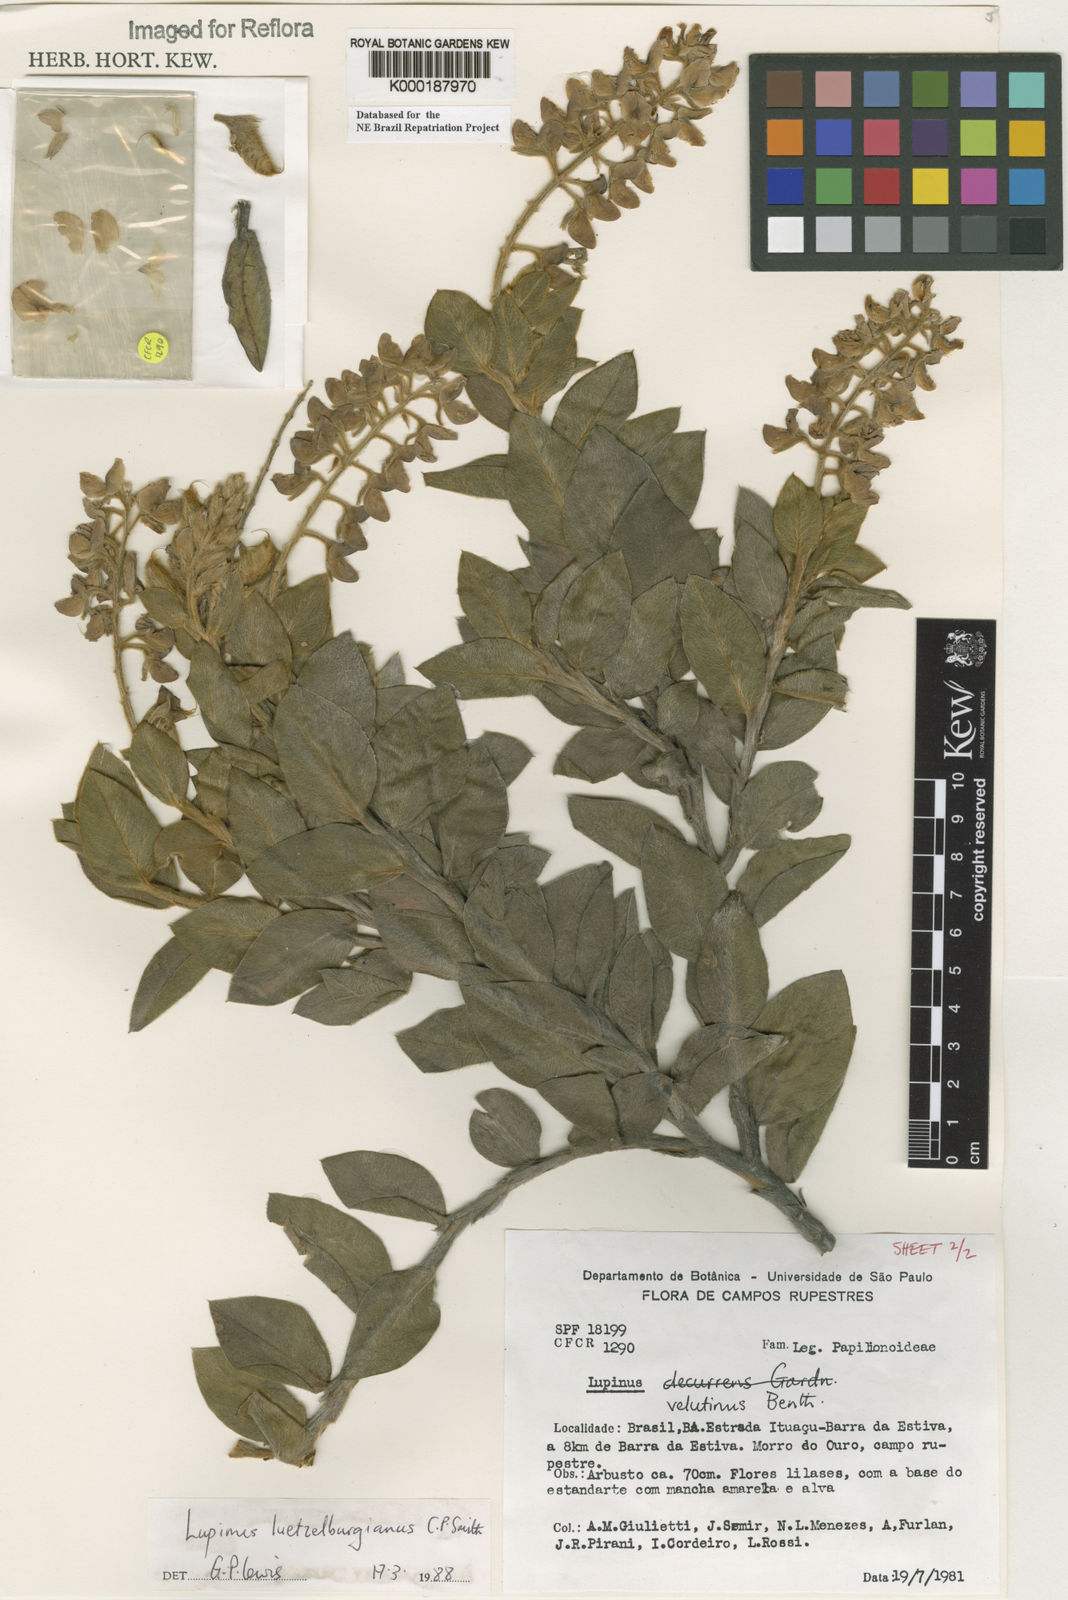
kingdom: Plantae
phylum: Tracheophyta
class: Magnoliopsida
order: Fabales
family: Fabaceae
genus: Lupinus
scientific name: Lupinus
